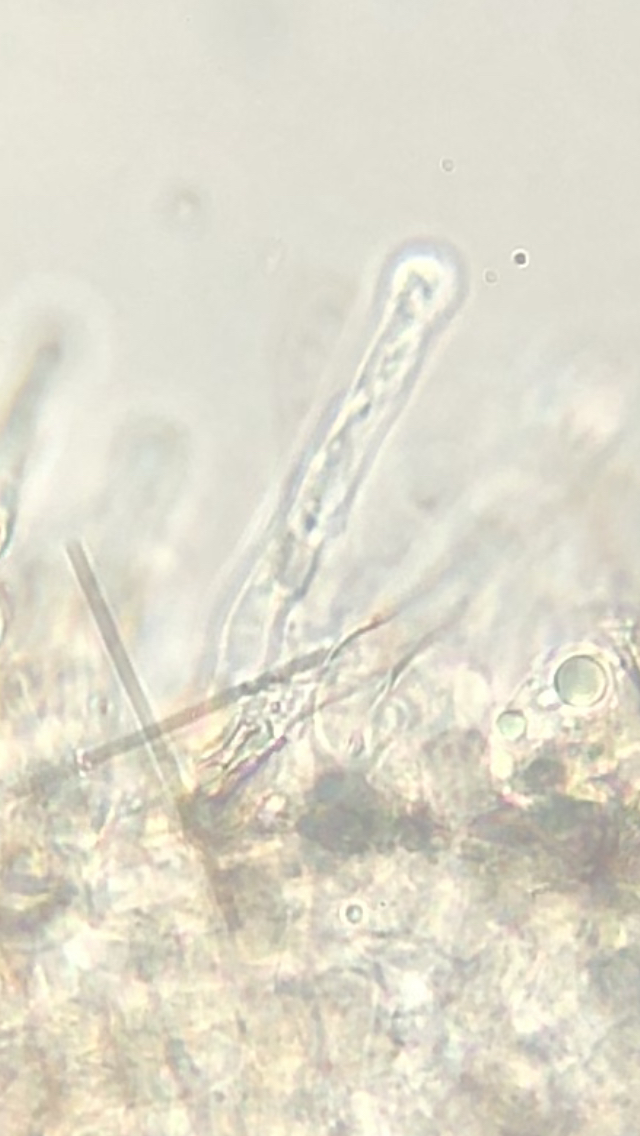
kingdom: Fungi
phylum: Basidiomycota
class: Agaricomycetes
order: Agaricales
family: Hymenogastraceae
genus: Hebeloma
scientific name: Hebeloma mesophaeum
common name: lerbrun tåreblad
